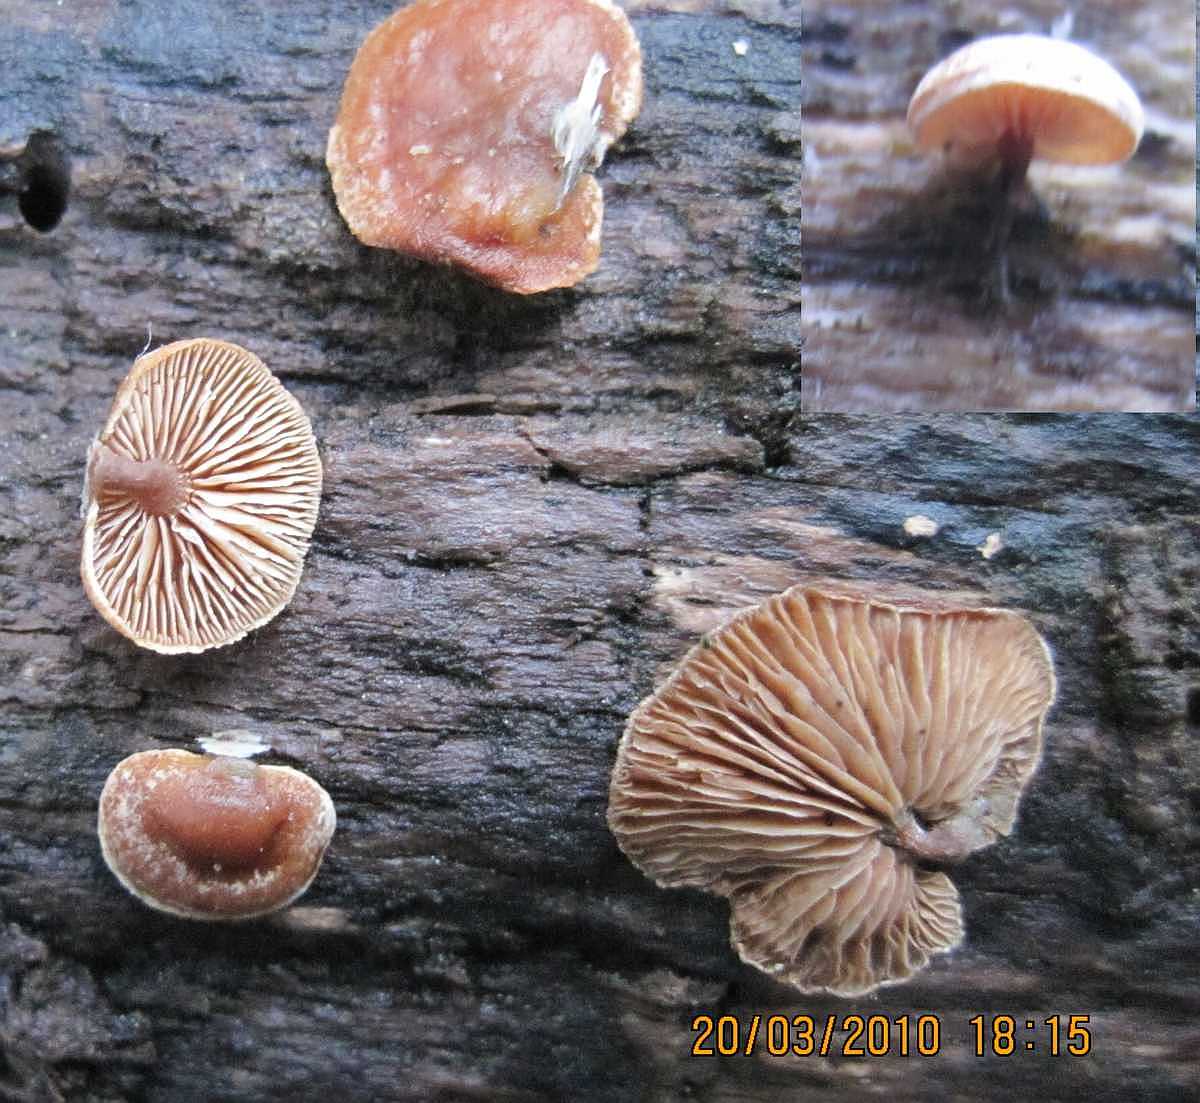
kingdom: Fungi
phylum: Basidiomycota
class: Agaricomycetes
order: Agaricales
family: Strophariaceae
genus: Deconica
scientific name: Deconica horizontalis
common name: ved-stråhat
